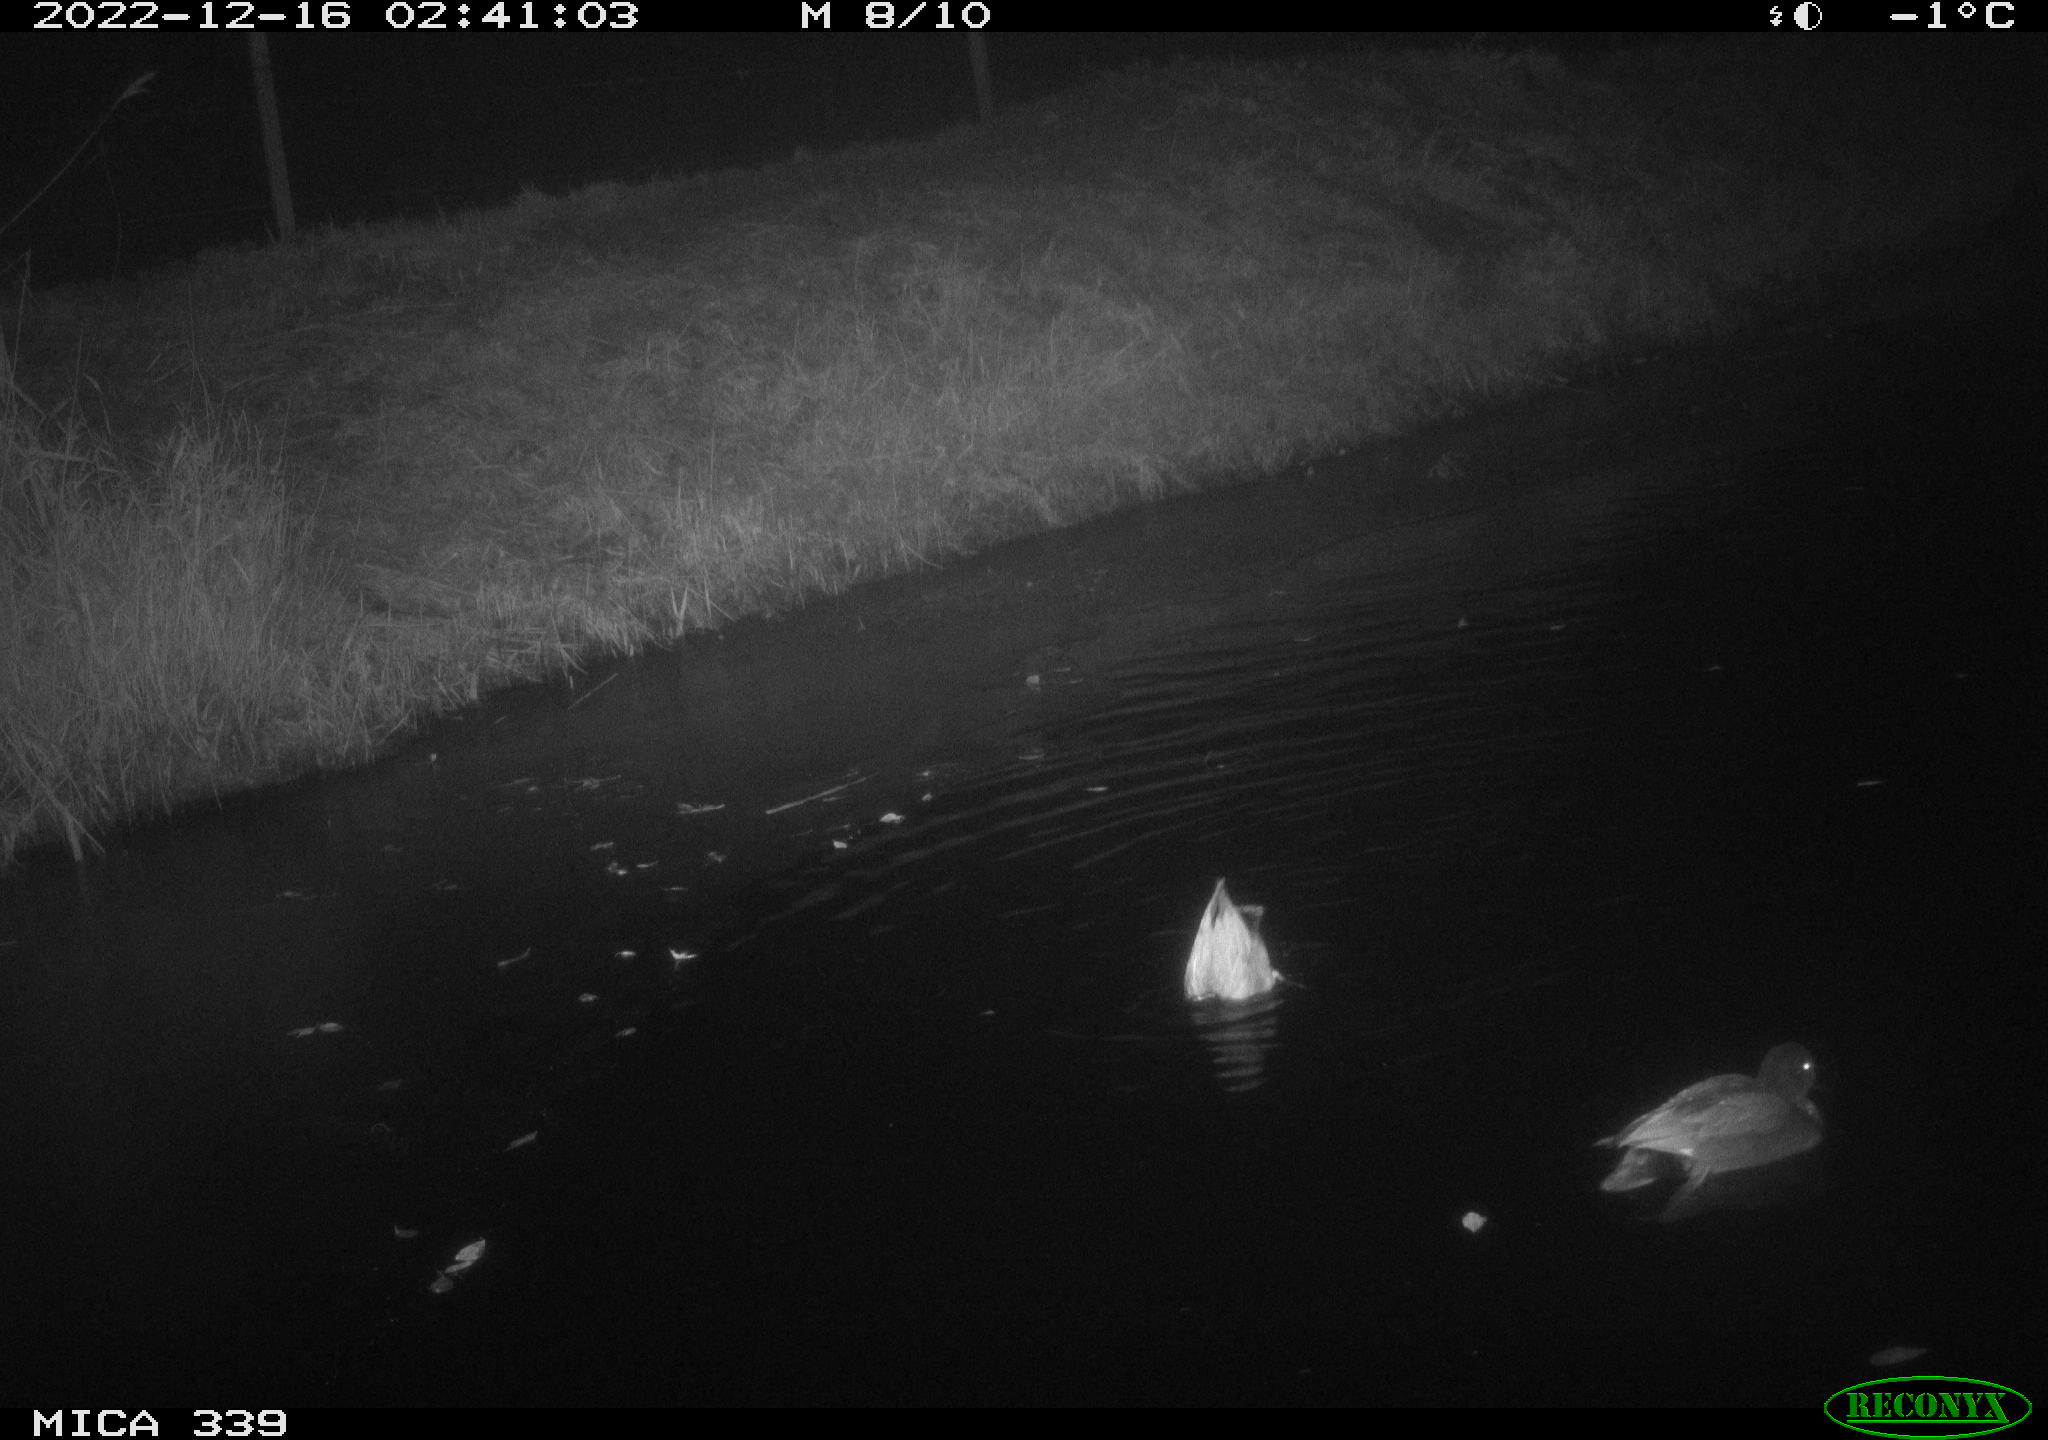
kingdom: Animalia
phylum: Chordata
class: Aves
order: Anseriformes
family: Anatidae
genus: Anas
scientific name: Anas
